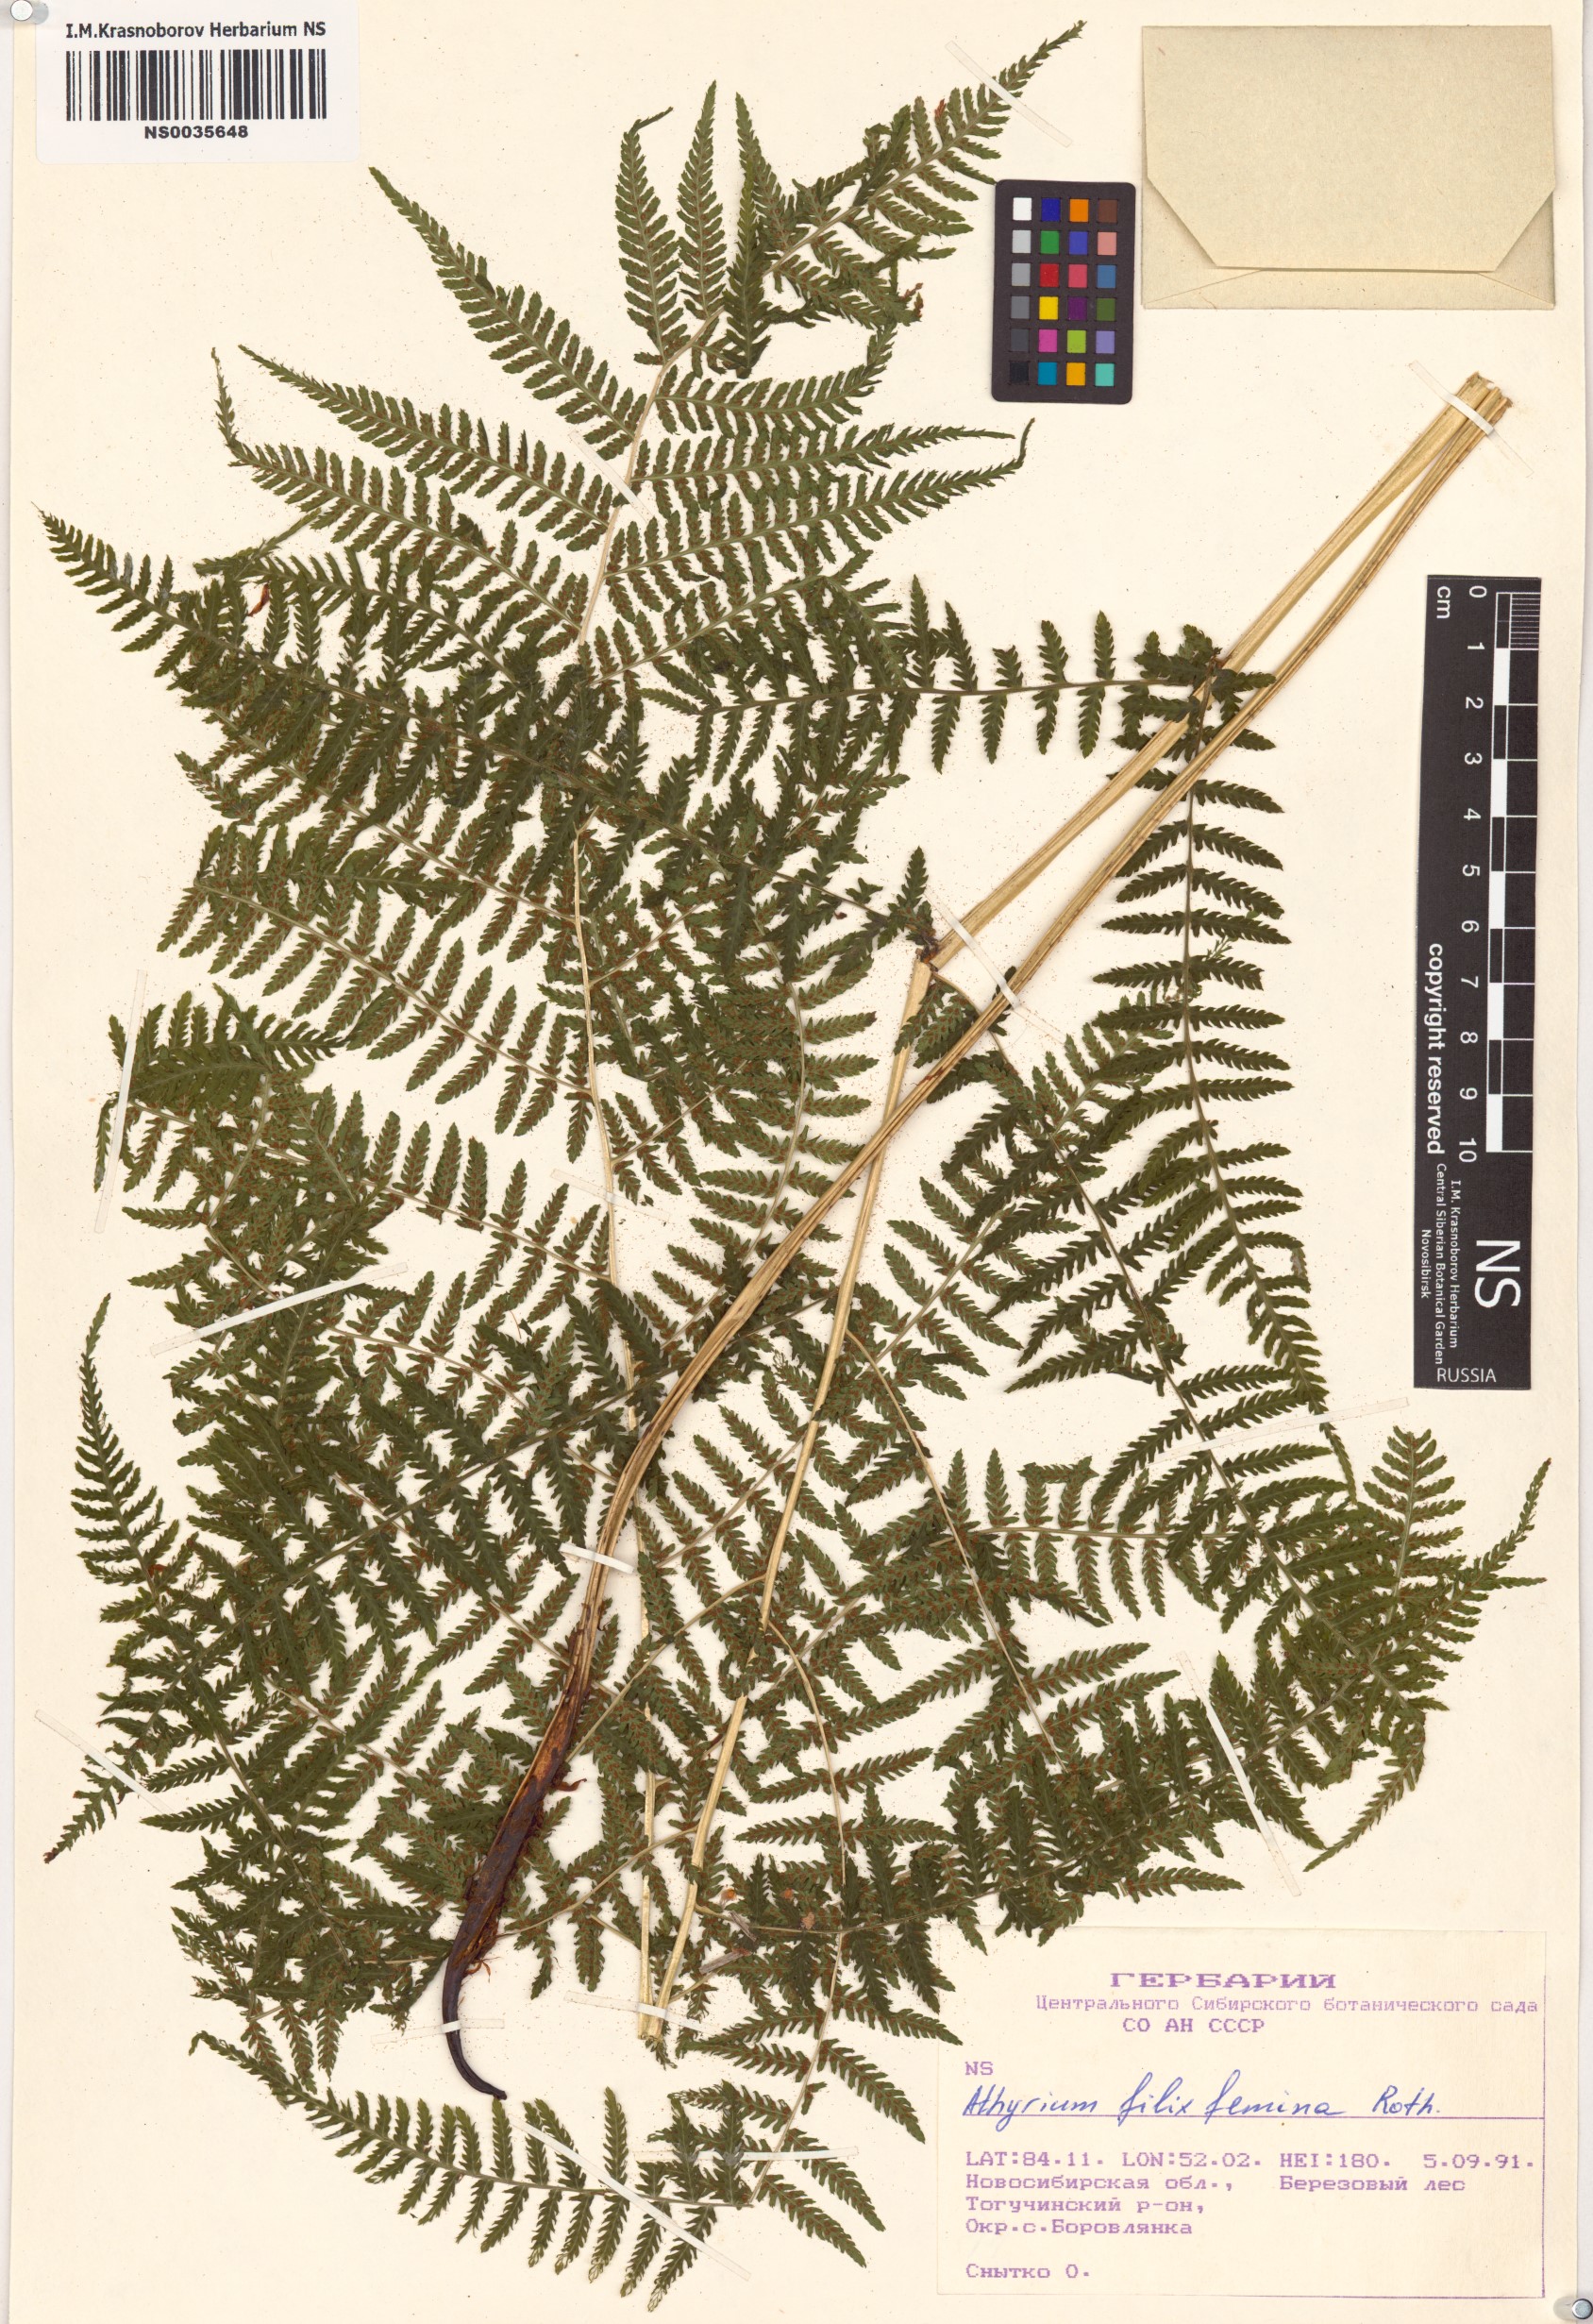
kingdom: Plantae
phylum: Tracheophyta
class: Polypodiopsida
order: Polypodiales
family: Athyriaceae
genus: Athyrium
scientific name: Athyrium filix-femina
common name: Lady fern
